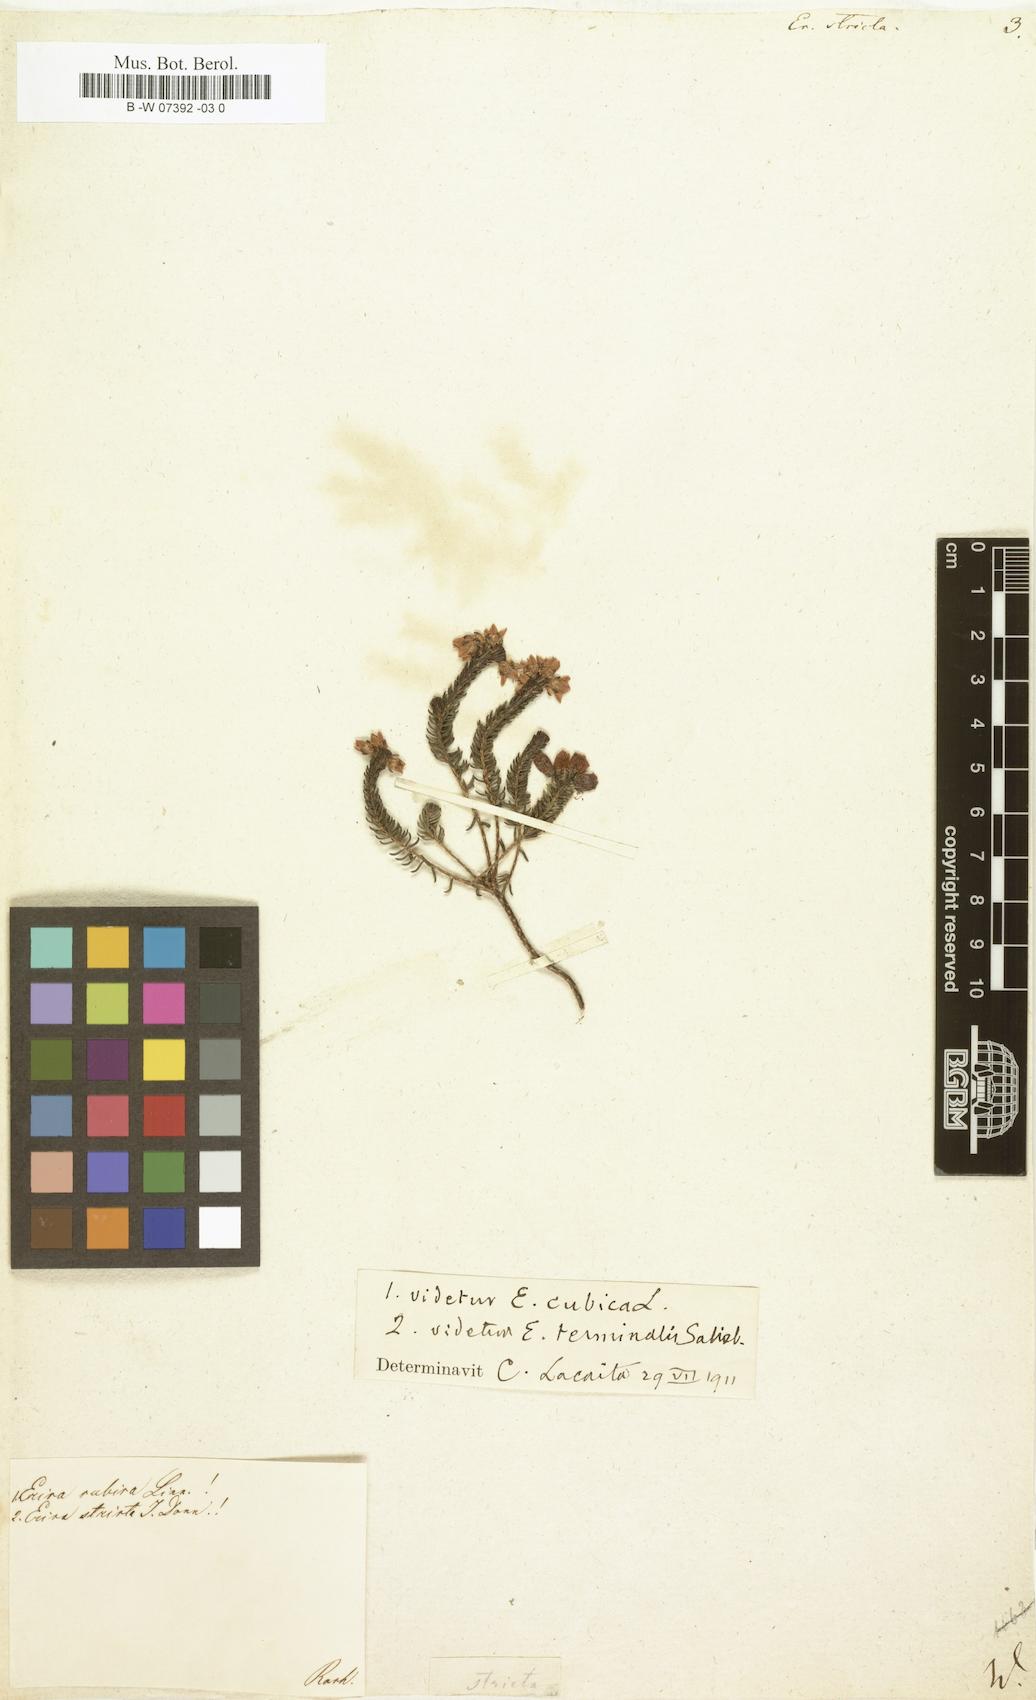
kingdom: Plantae
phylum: Tracheophyta
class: Magnoliopsida
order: Ericales
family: Ericaceae
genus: Erica
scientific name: Erica terminalis
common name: Corsican heath
